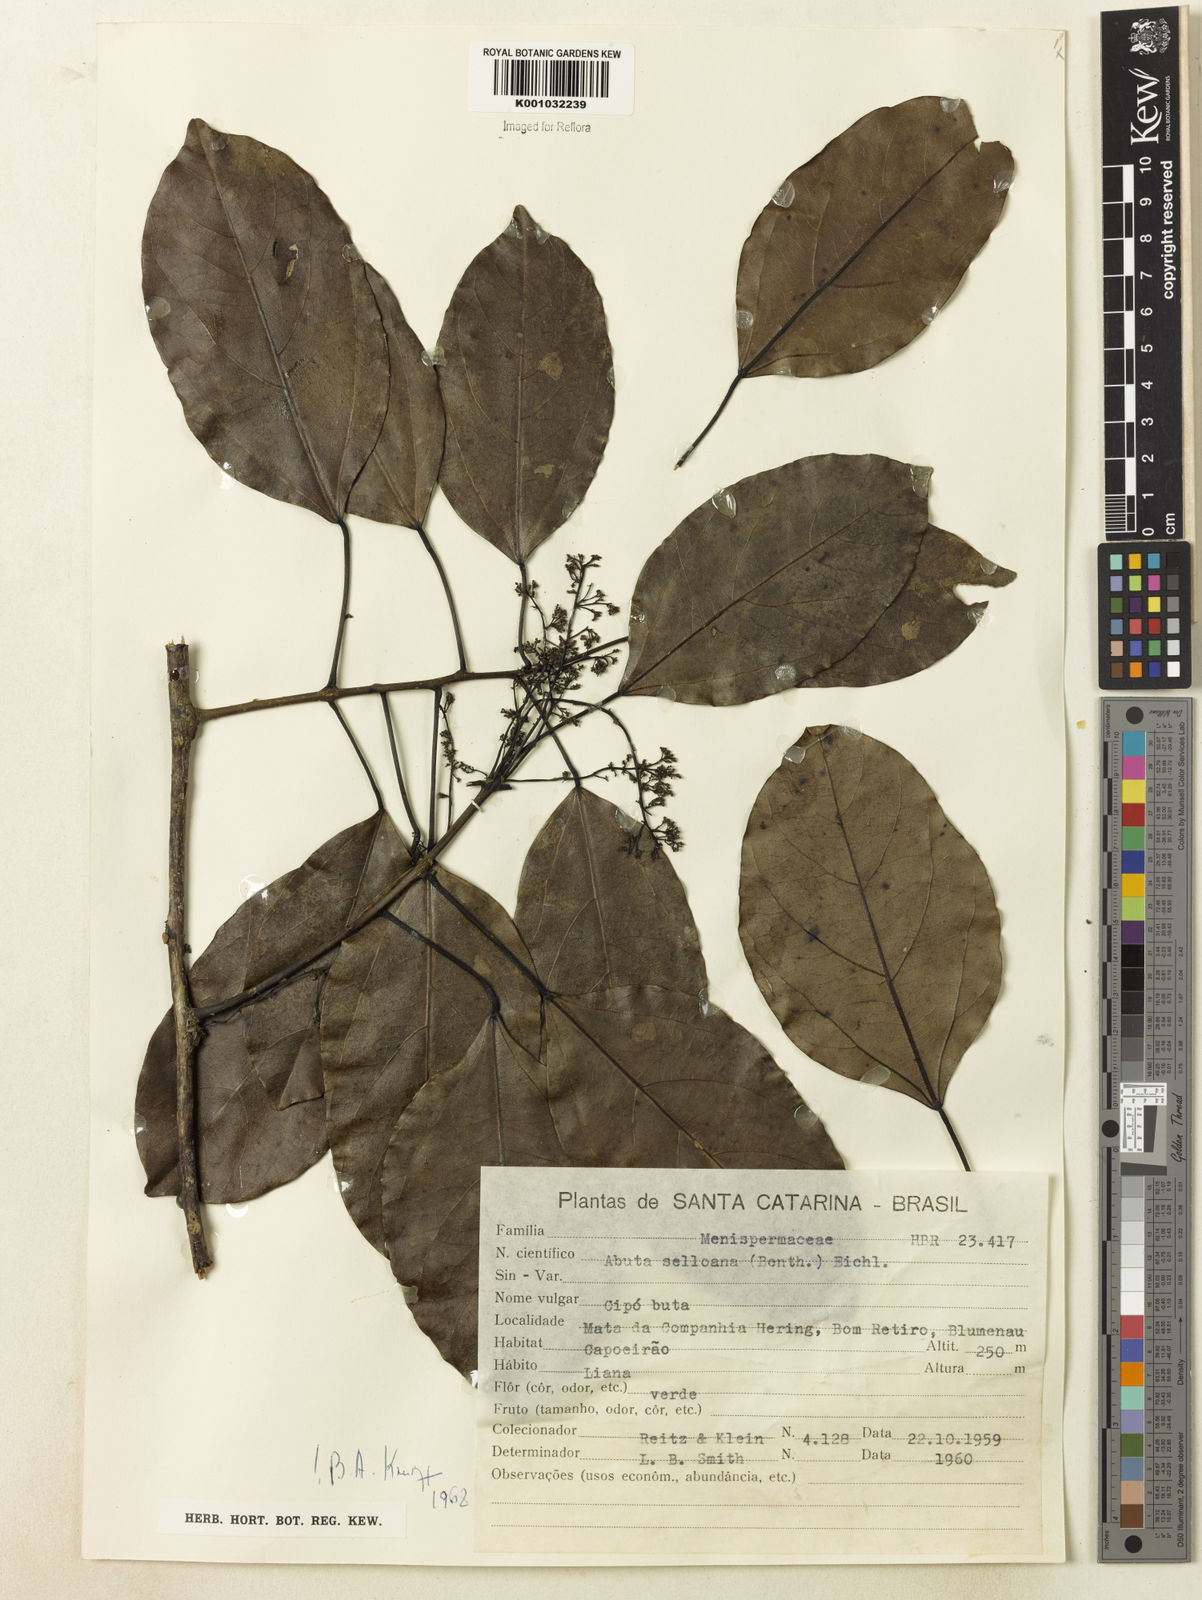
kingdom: Plantae
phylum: Tracheophyta
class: Magnoliopsida
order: Ranunculales
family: Menispermaceae
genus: Abuta
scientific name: Abuta selloana
